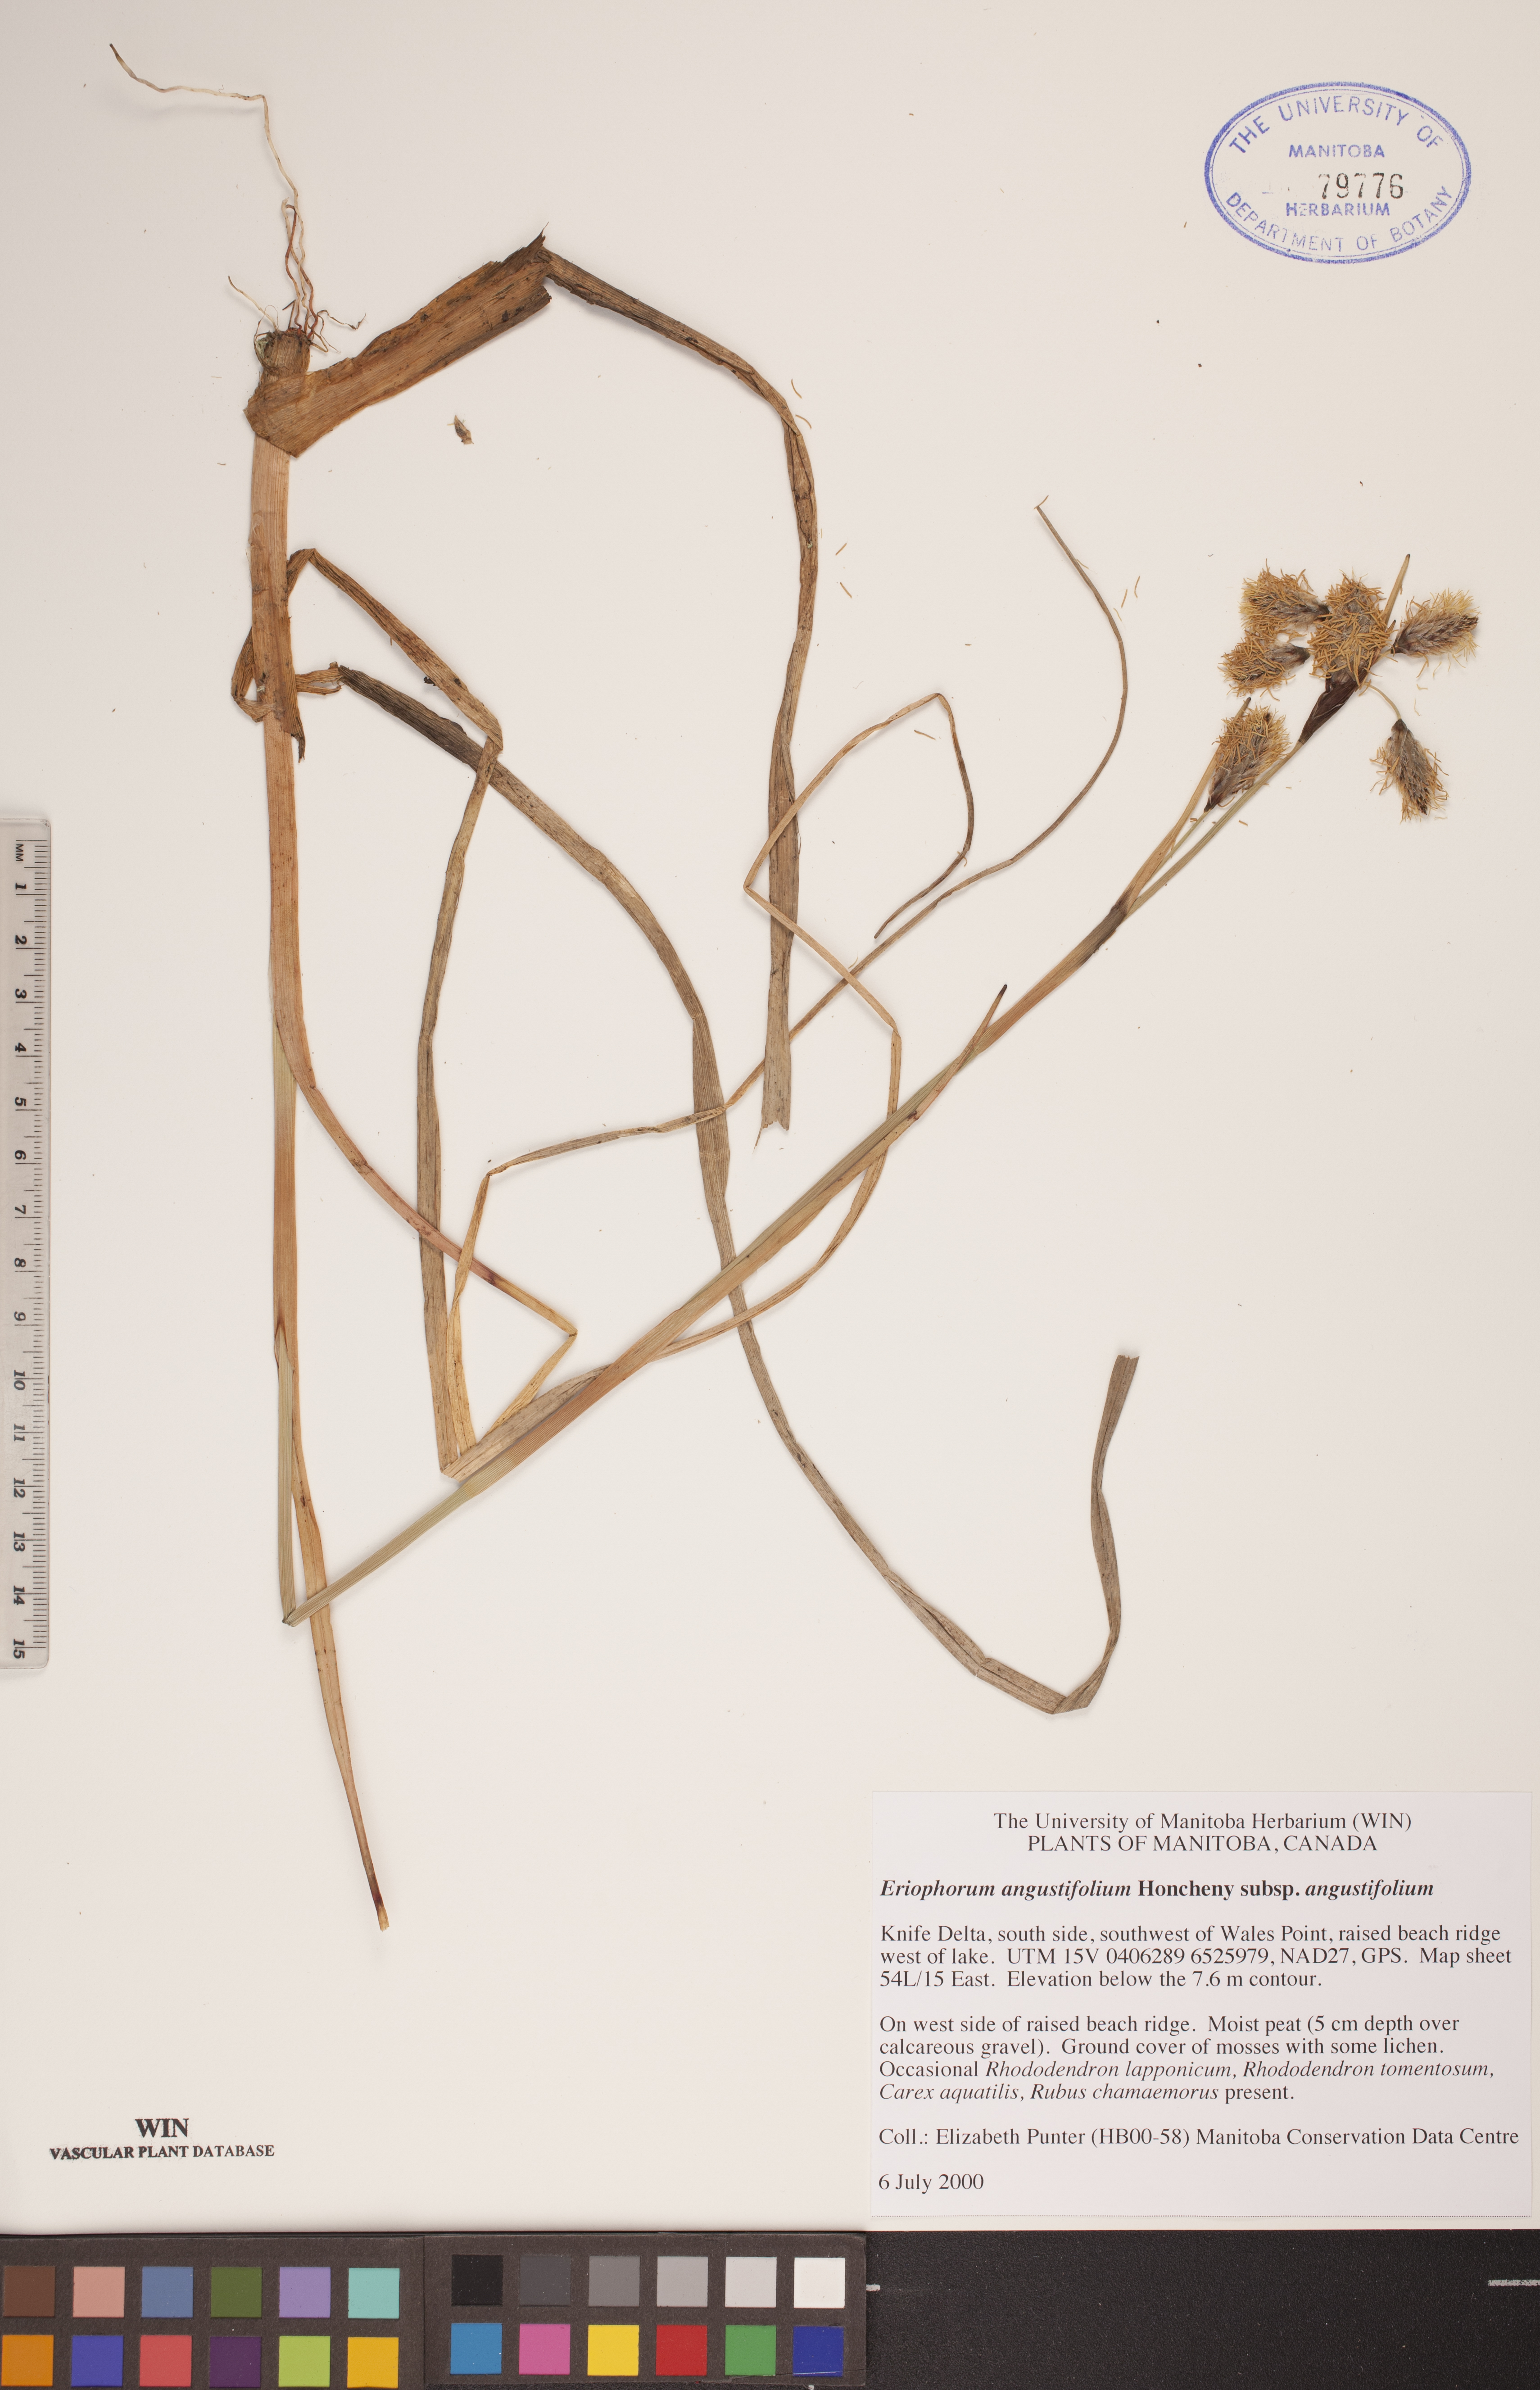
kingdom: Plantae
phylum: Tracheophyta
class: Liliopsida
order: Poales
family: Cyperaceae
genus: Eriophorum
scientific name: Eriophorum angustifolium
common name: Common cottongrass
